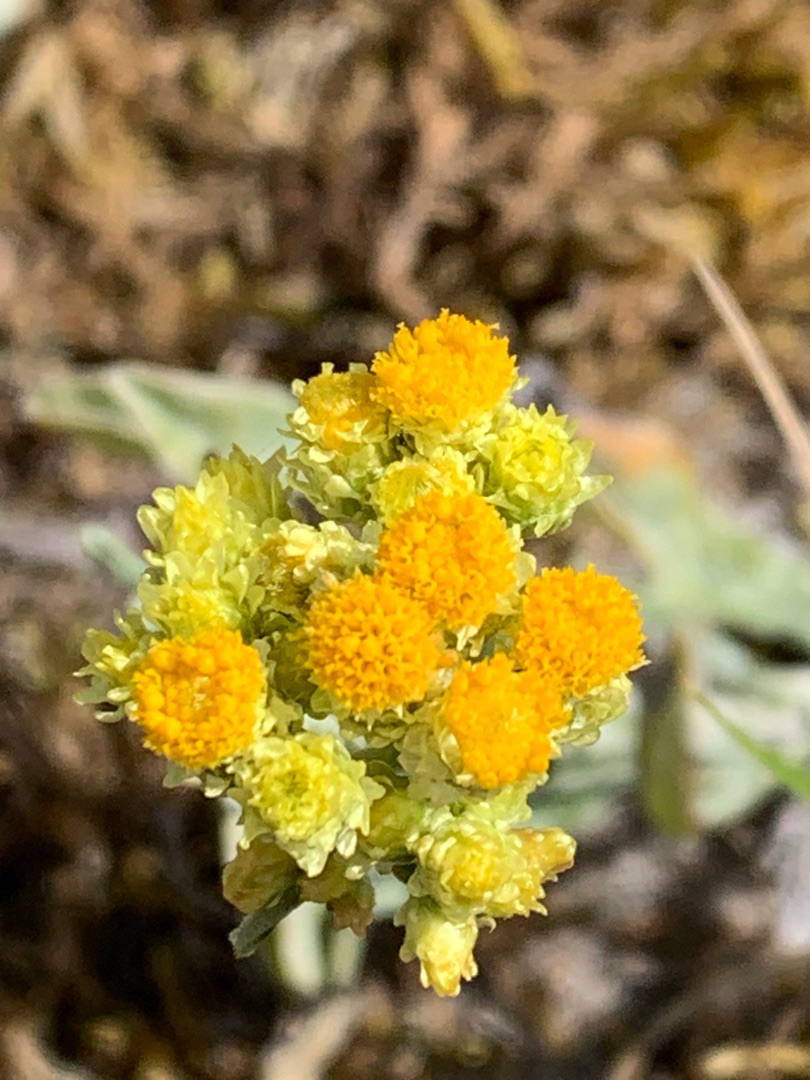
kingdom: Plantae
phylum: Tracheophyta
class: Magnoliopsida
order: Asterales
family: Asteraceae
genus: Helichrysum
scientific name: Helichrysum arenarium
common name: Gul evighedsblomst
